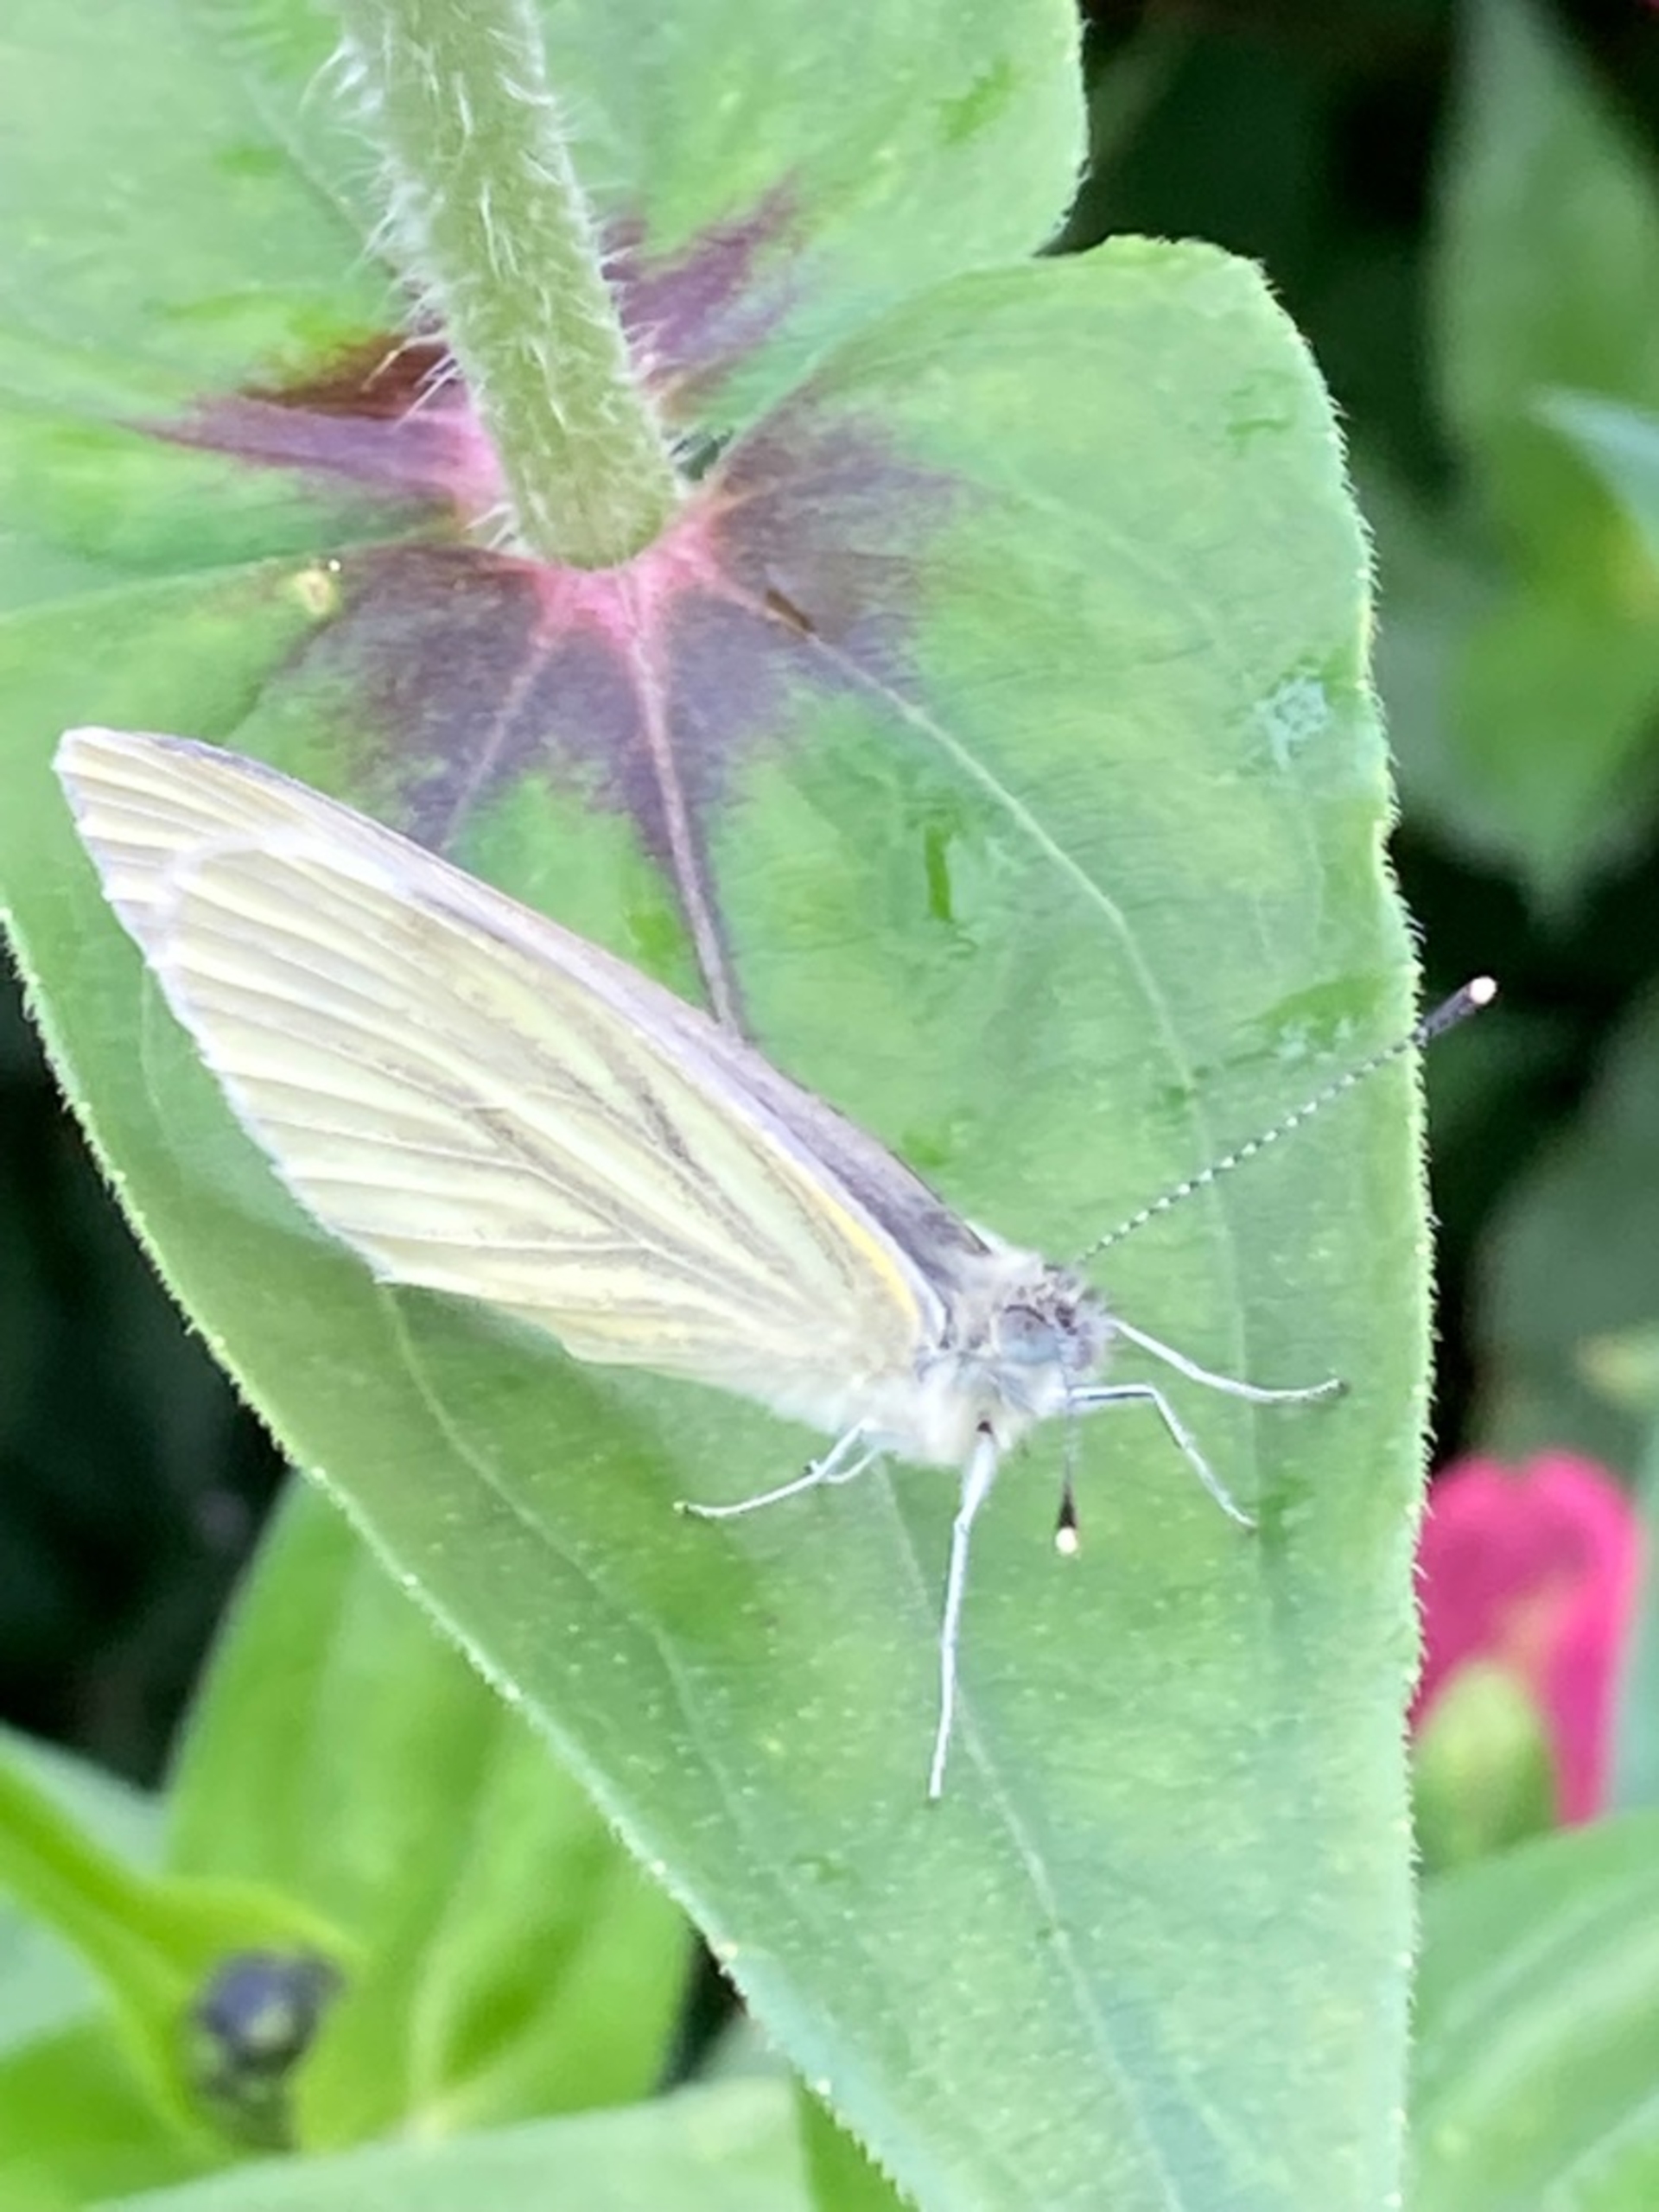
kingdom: Animalia
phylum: Arthropoda
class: Insecta
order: Lepidoptera
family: Pieridae
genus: Pieris
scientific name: Pieris napi
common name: Grønåret kålsommerfugl
